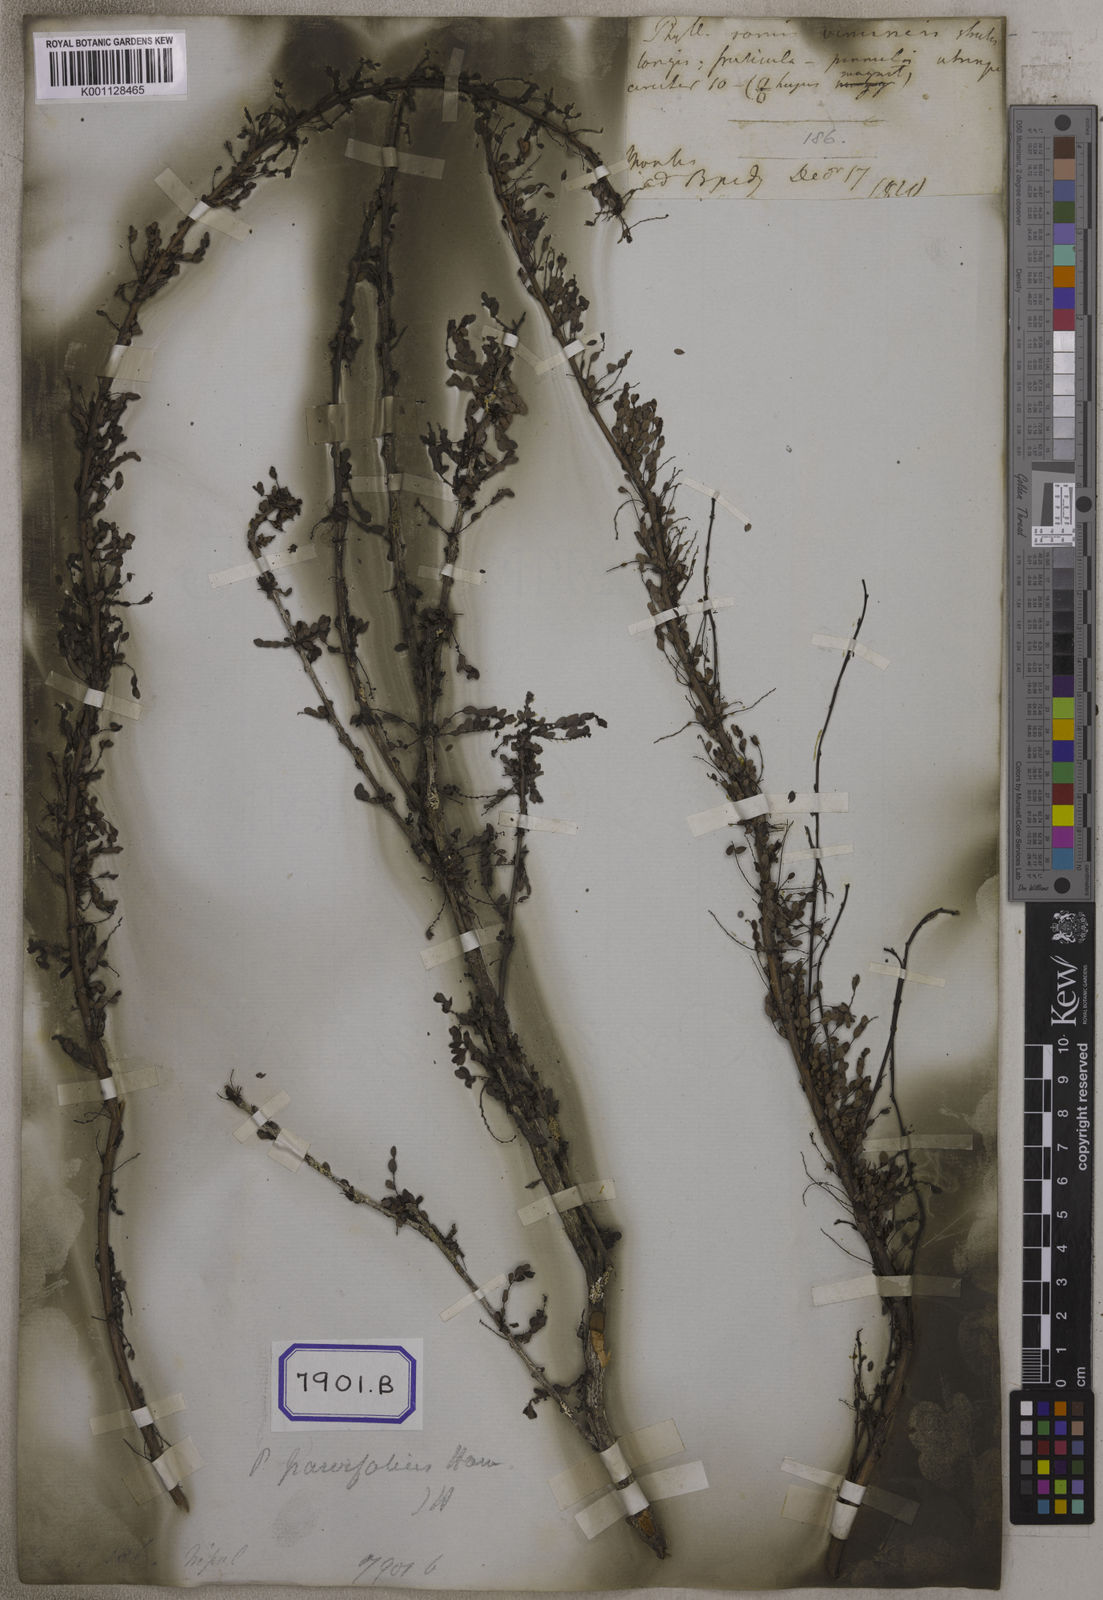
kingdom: Plantae
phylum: Tracheophyta
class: Magnoliopsida
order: Malpighiales
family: Euphorbiaceae
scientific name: Euphorbiaceae
